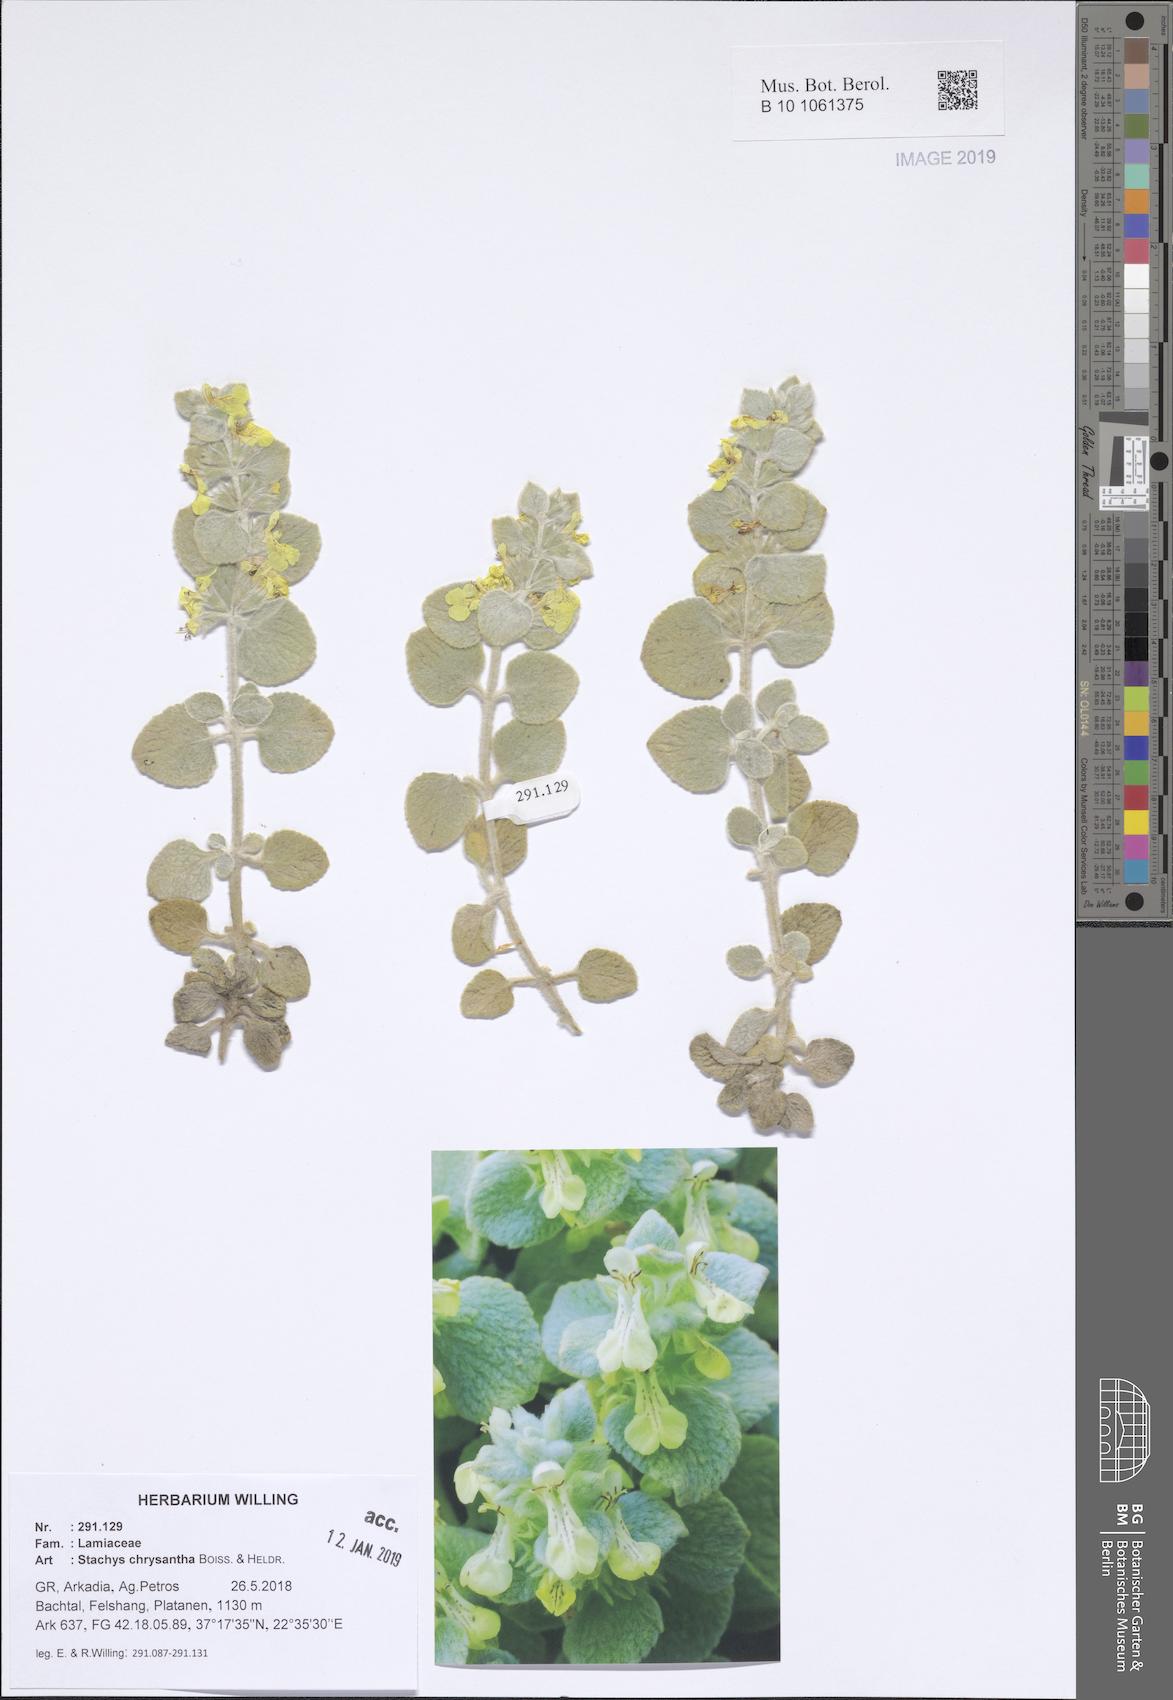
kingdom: Plantae
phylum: Tracheophyta
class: Magnoliopsida
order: Lamiales
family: Lamiaceae
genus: Stachys
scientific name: Stachys chrysantha
